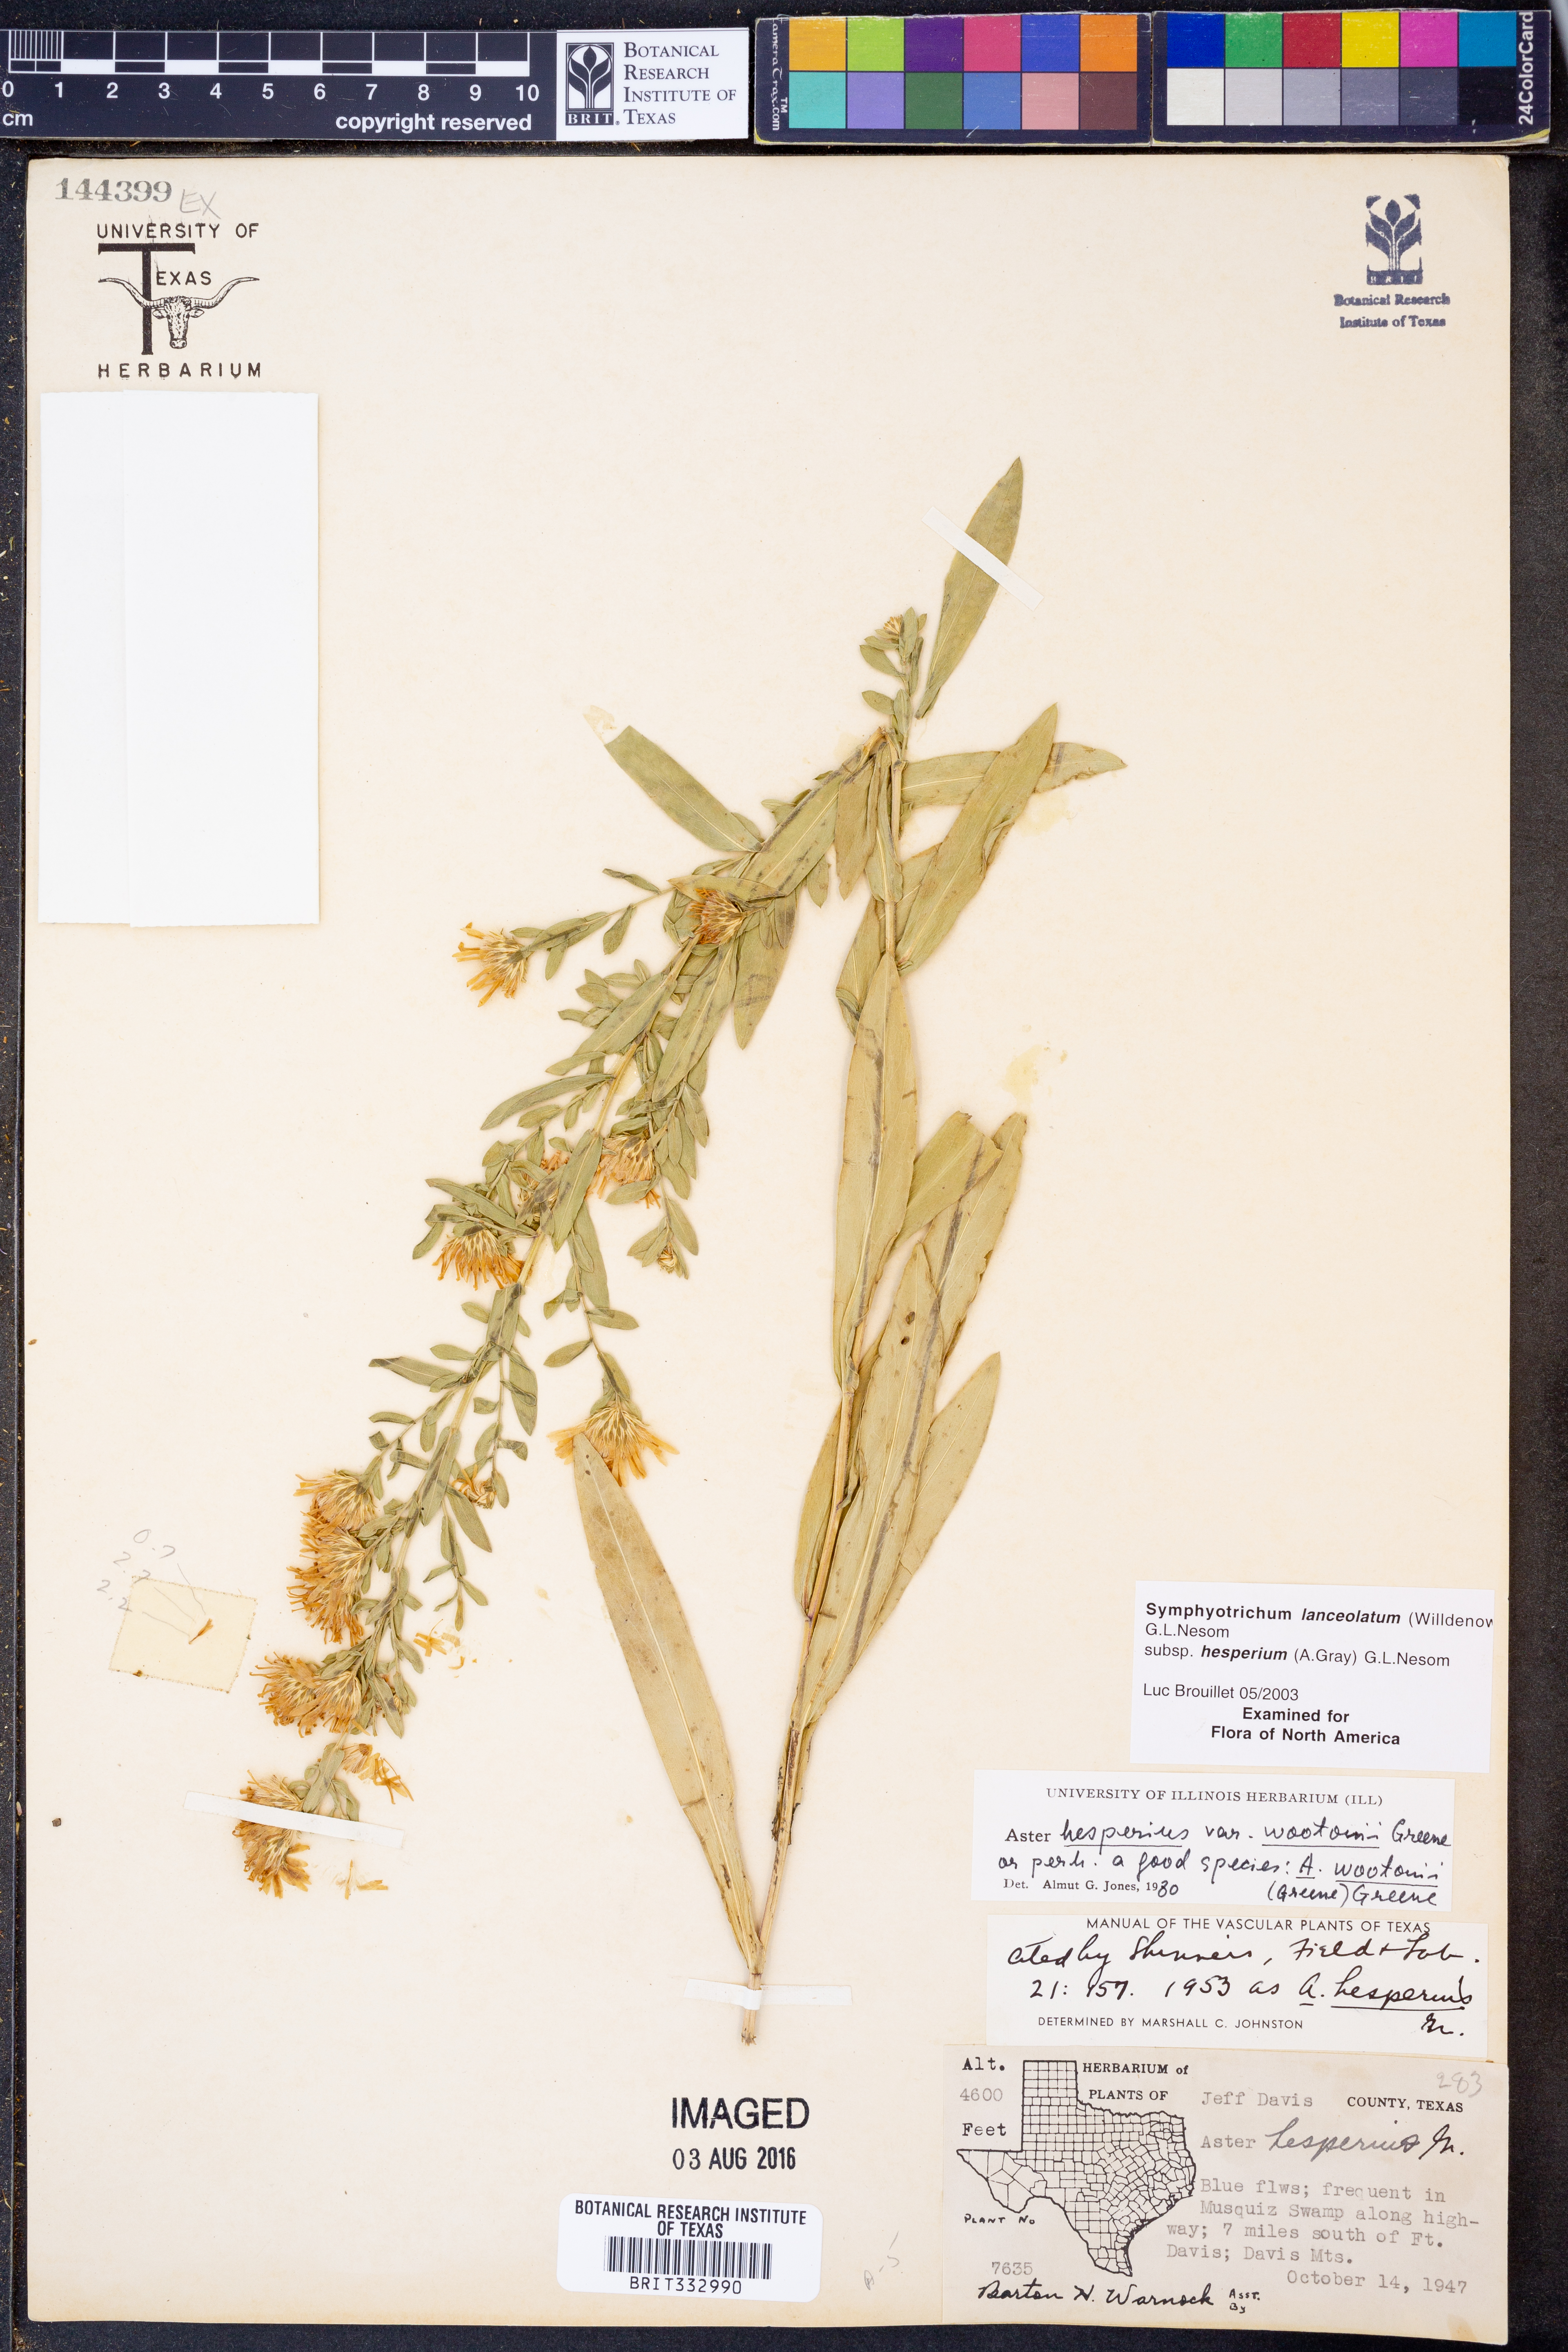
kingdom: Plantae
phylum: Tracheophyta
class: Magnoliopsida
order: Asterales
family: Asteraceae
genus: Symphyotrichum
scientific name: Symphyotrichum lanceolatum
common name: Panicled aster
